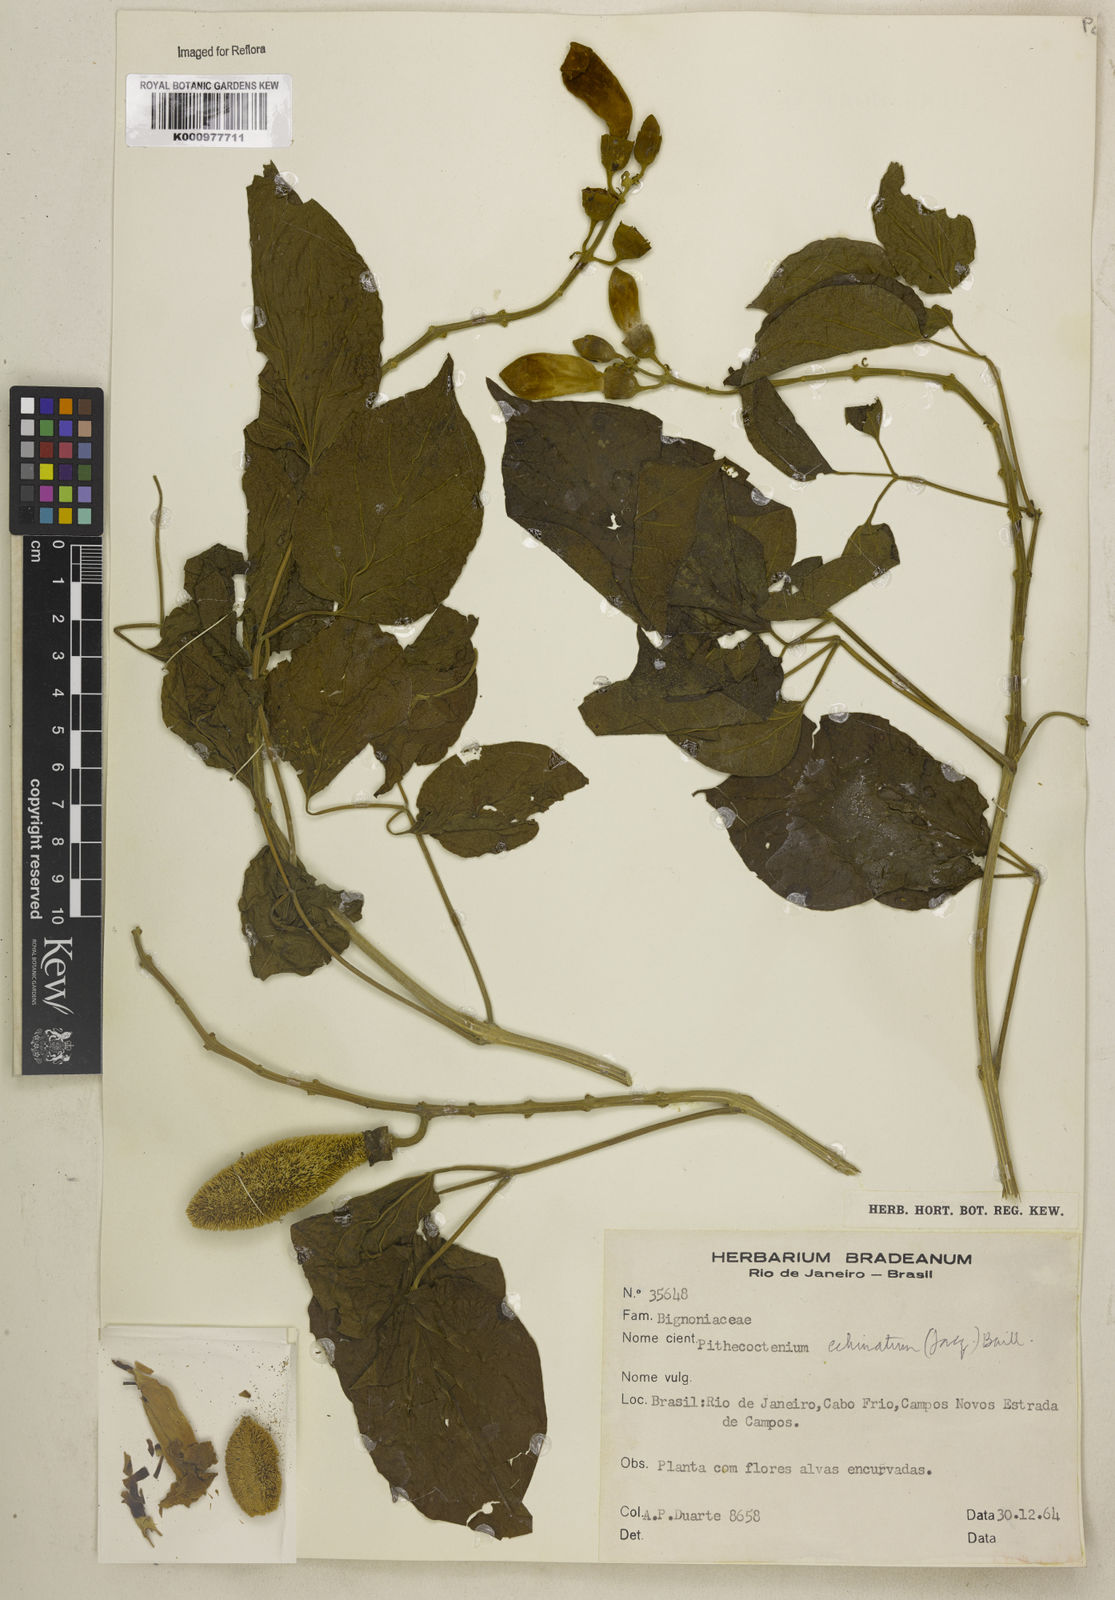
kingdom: Plantae
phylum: Tracheophyta
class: Magnoliopsida
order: Lamiales
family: Bignoniaceae
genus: Amphilophium
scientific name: Amphilophium crucigerum
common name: Monkey comb
